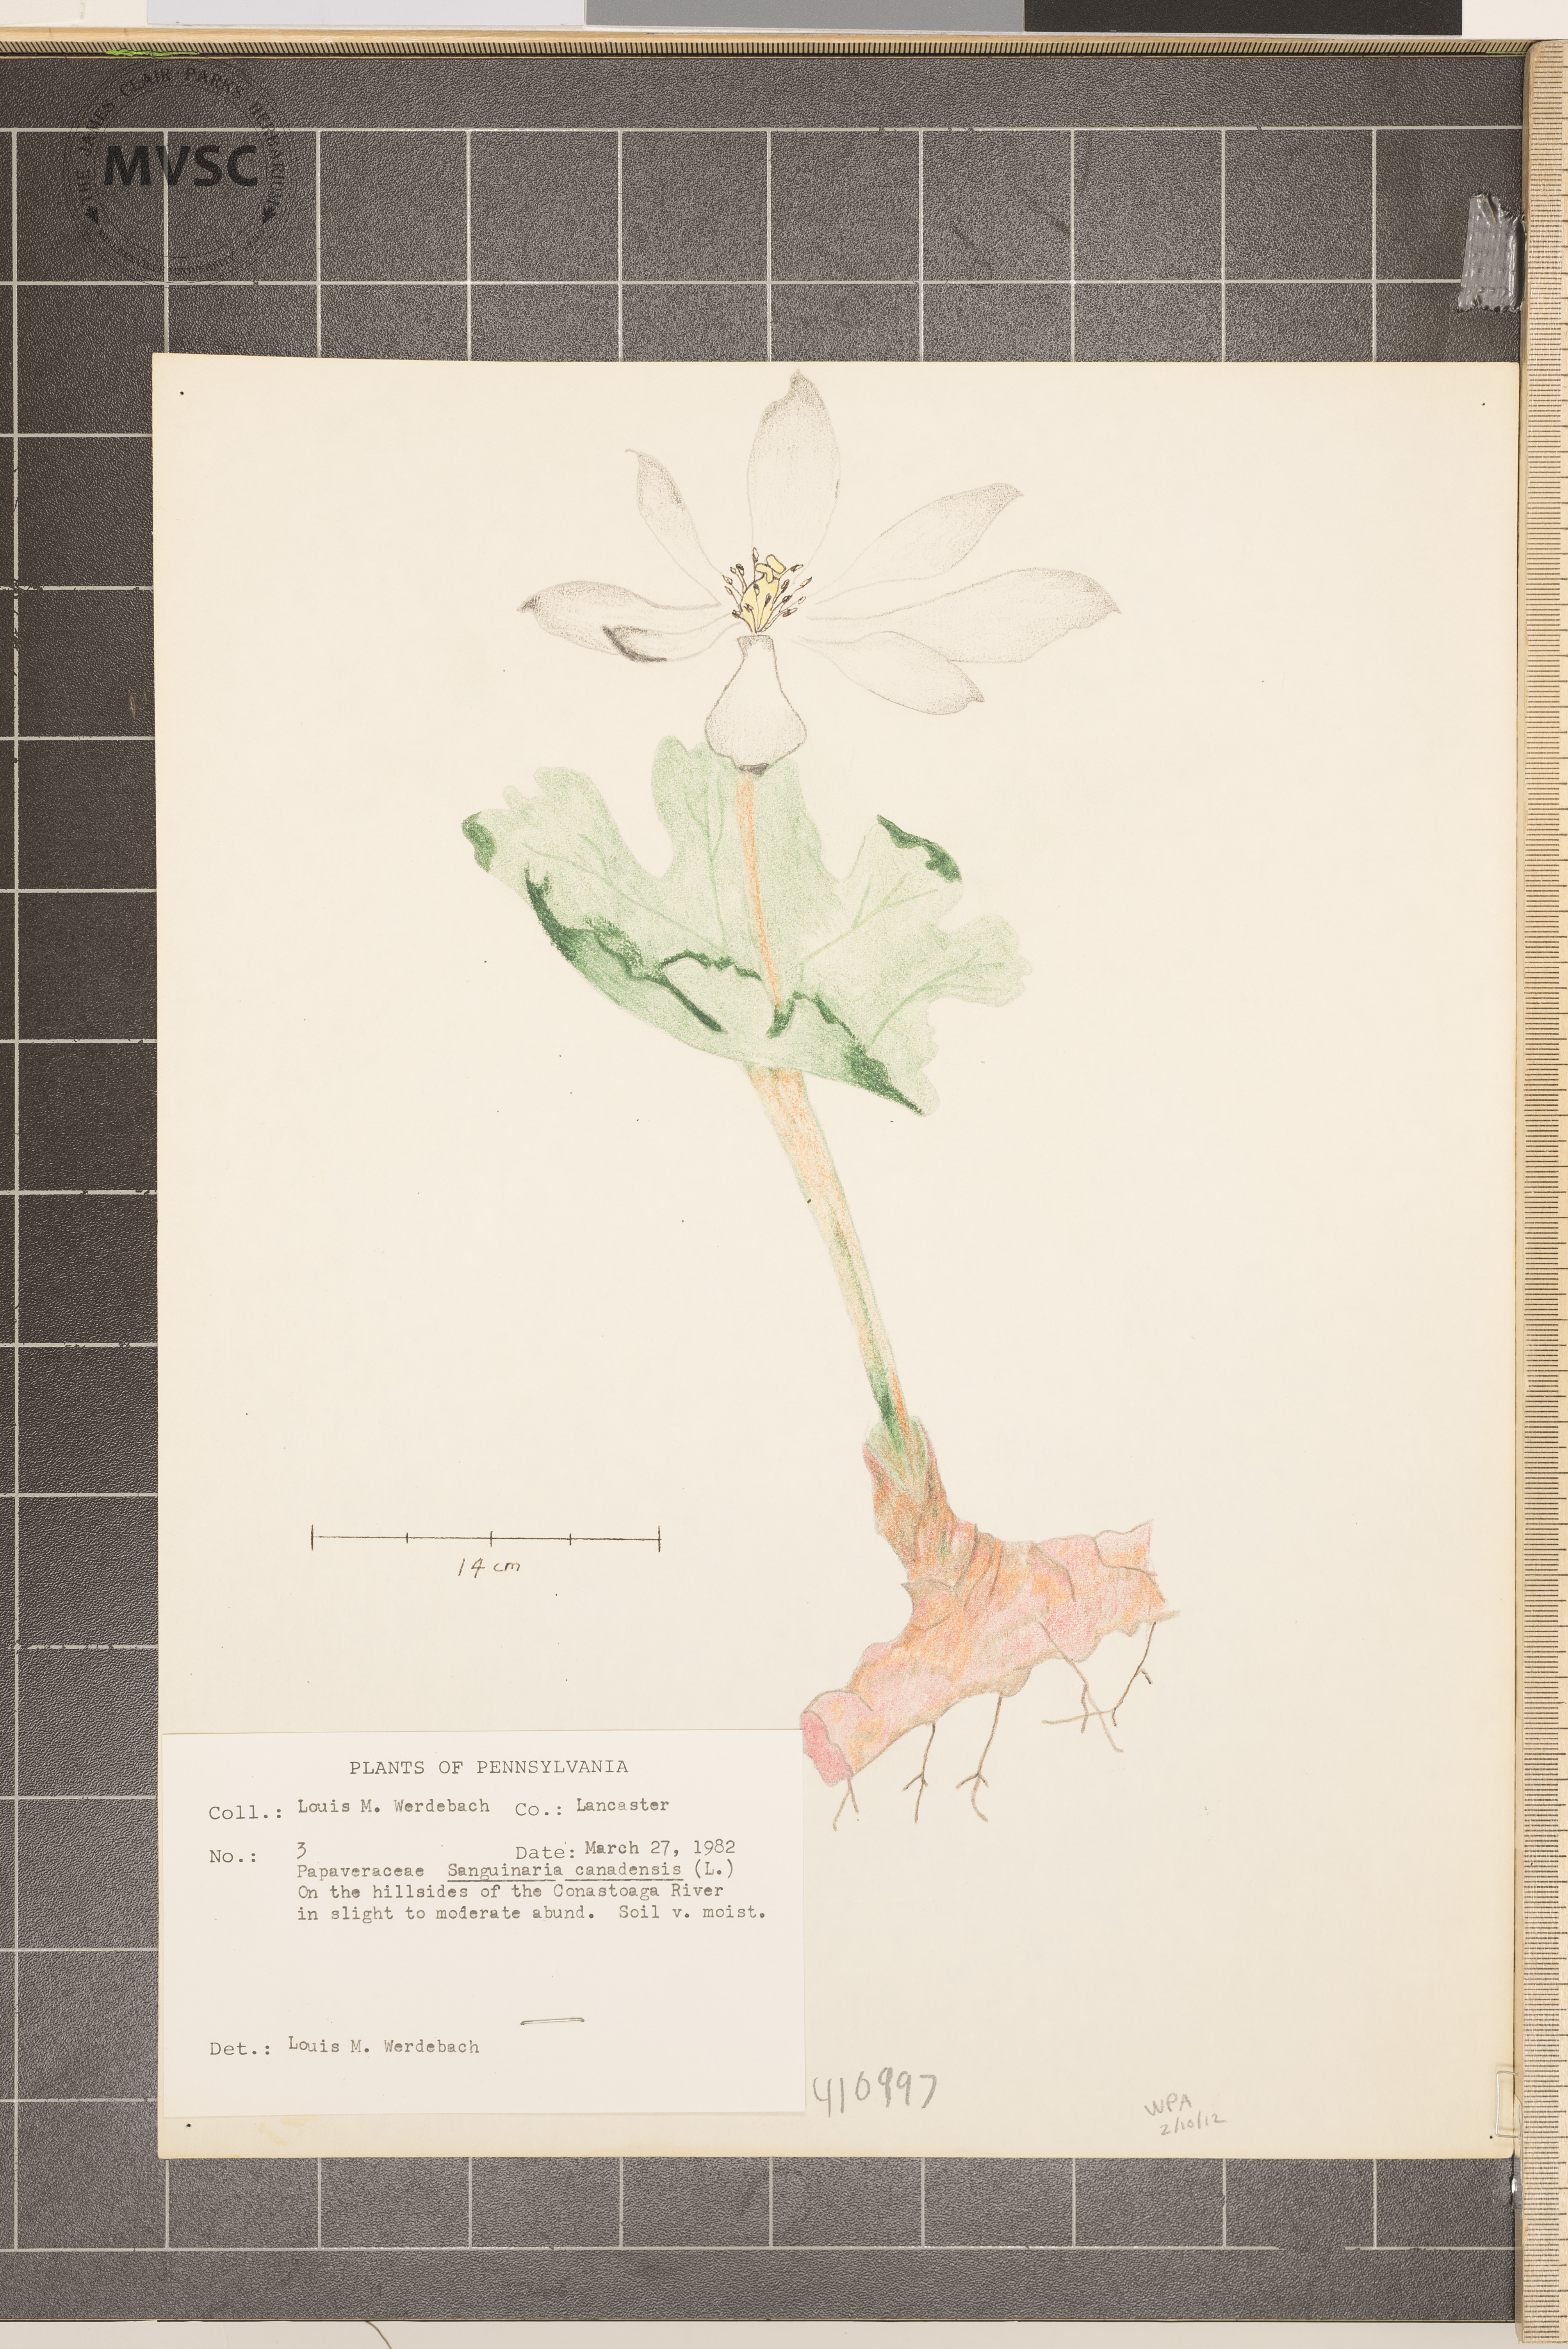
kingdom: Plantae
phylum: Tracheophyta
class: Magnoliopsida
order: Ranunculales
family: Papaveraceae
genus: Sanguinaria
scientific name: Sanguinaria canadensis
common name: Bloodroot
